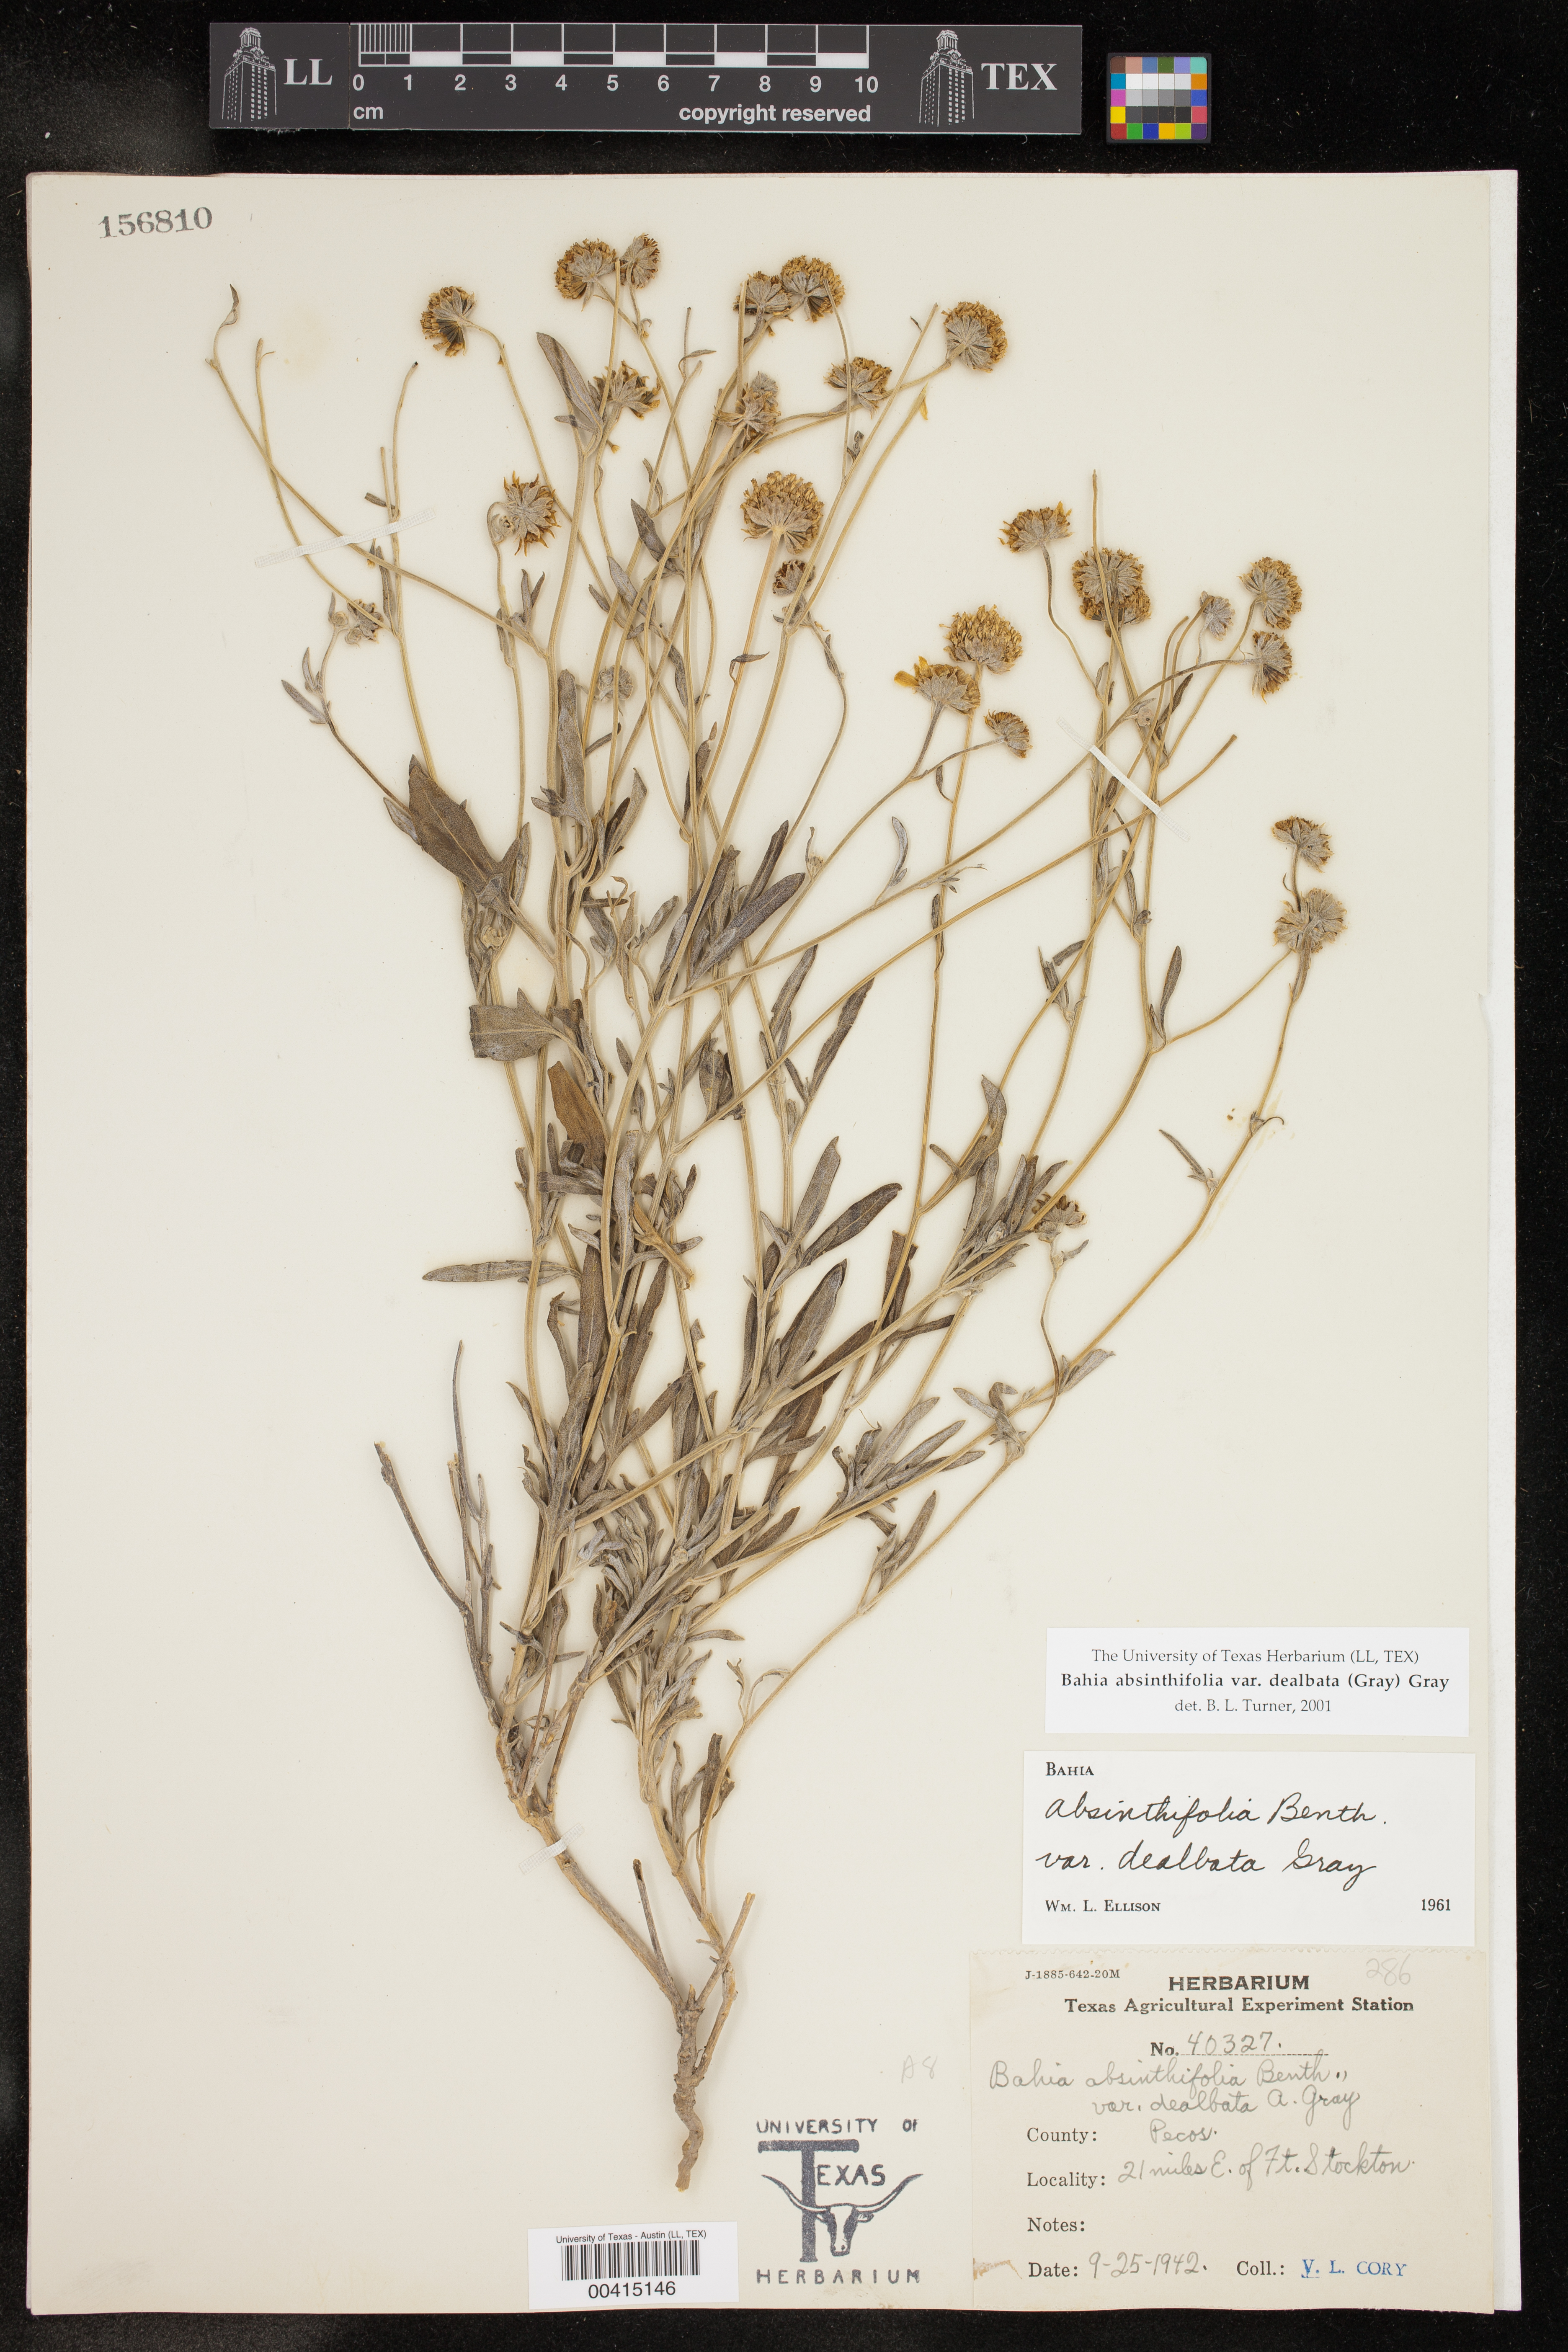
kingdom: Plantae
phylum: Tracheophyta
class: Magnoliopsida
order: Asterales
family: Asteraceae
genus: Picradeniopsis
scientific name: Picradeniopsis absinthifolia
